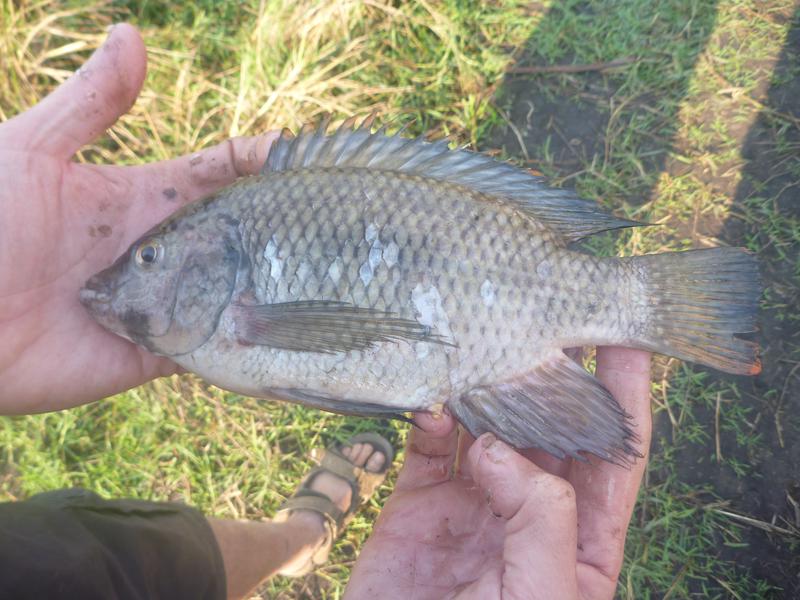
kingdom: Animalia
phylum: Chordata
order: Perciformes
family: Cichlidae
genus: Oreochromis
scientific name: Oreochromis karomo
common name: Karomo
